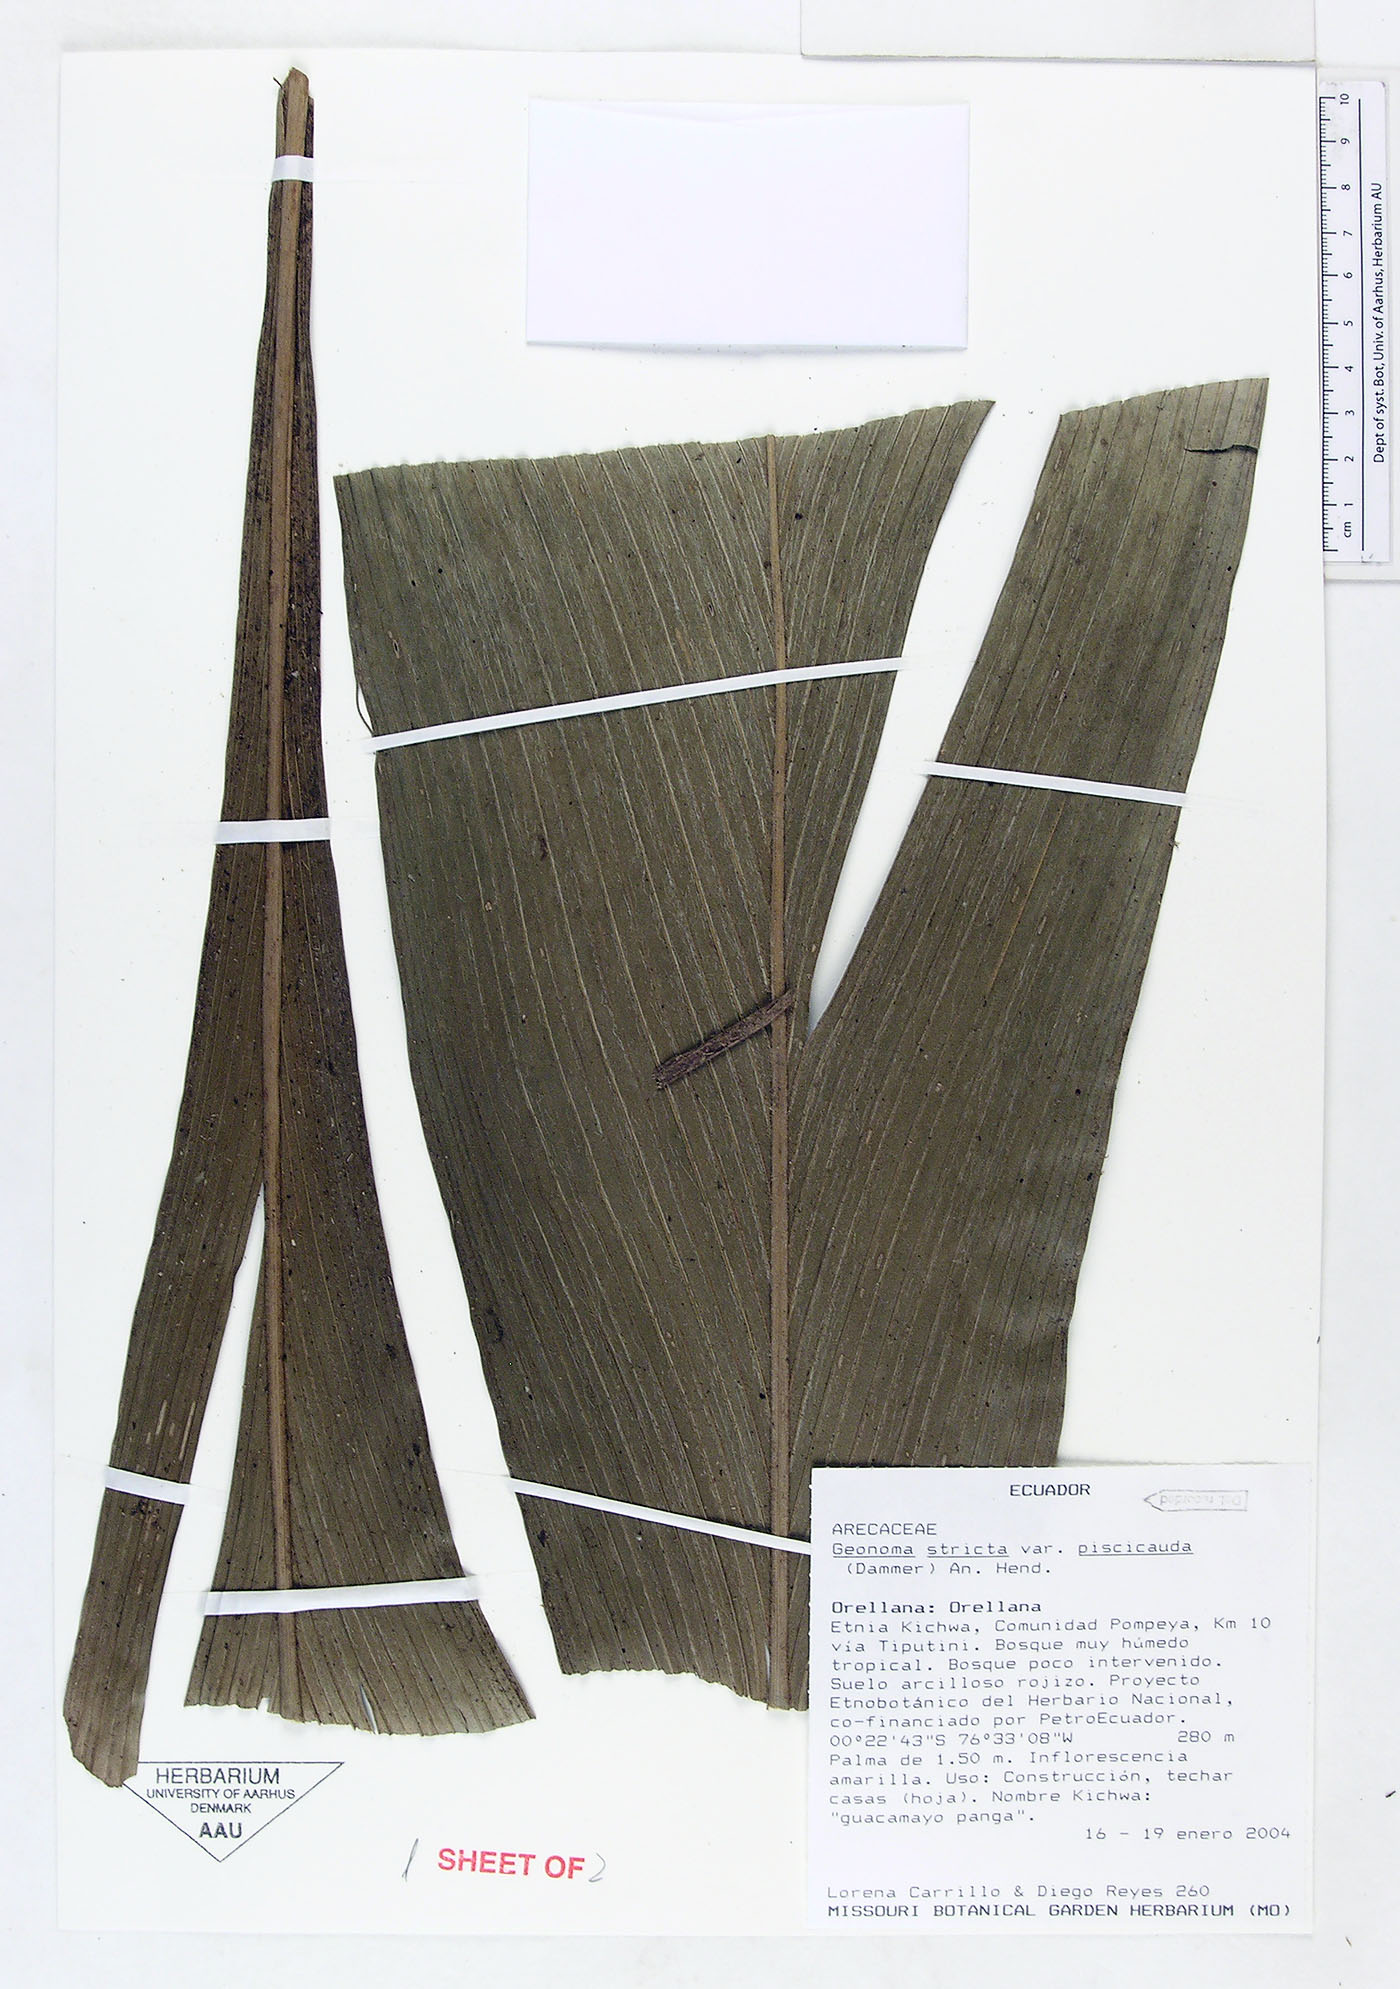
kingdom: Plantae
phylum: Tracheophyta
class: Liliopsida
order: Arecales
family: Arecaceae
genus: Geonoma
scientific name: Geonoma stricta
